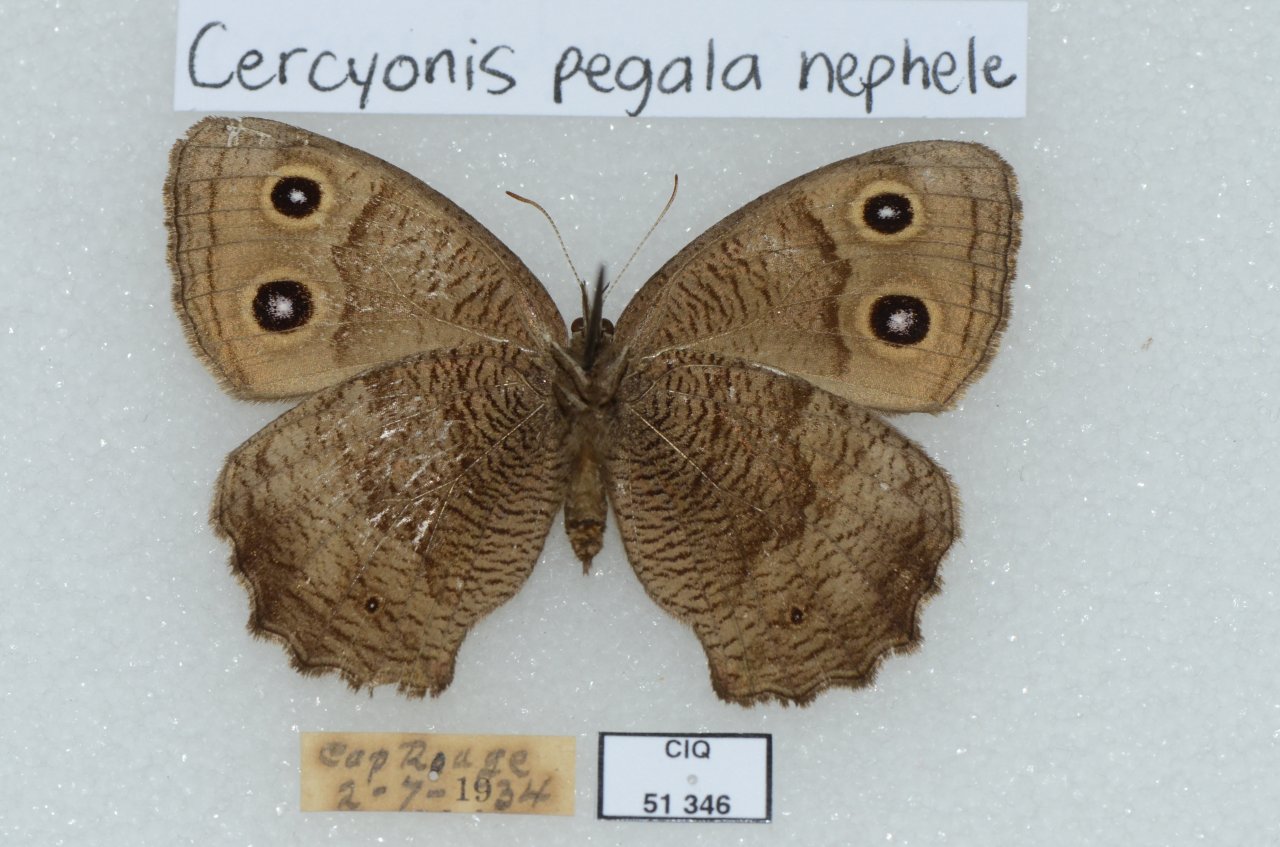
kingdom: Animalia
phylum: Arthropoda
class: Insecta
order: Lepidoptera
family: Nymphalidae
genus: Cercyonis
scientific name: Cercyonis pegala
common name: Common Wood-Nymph
